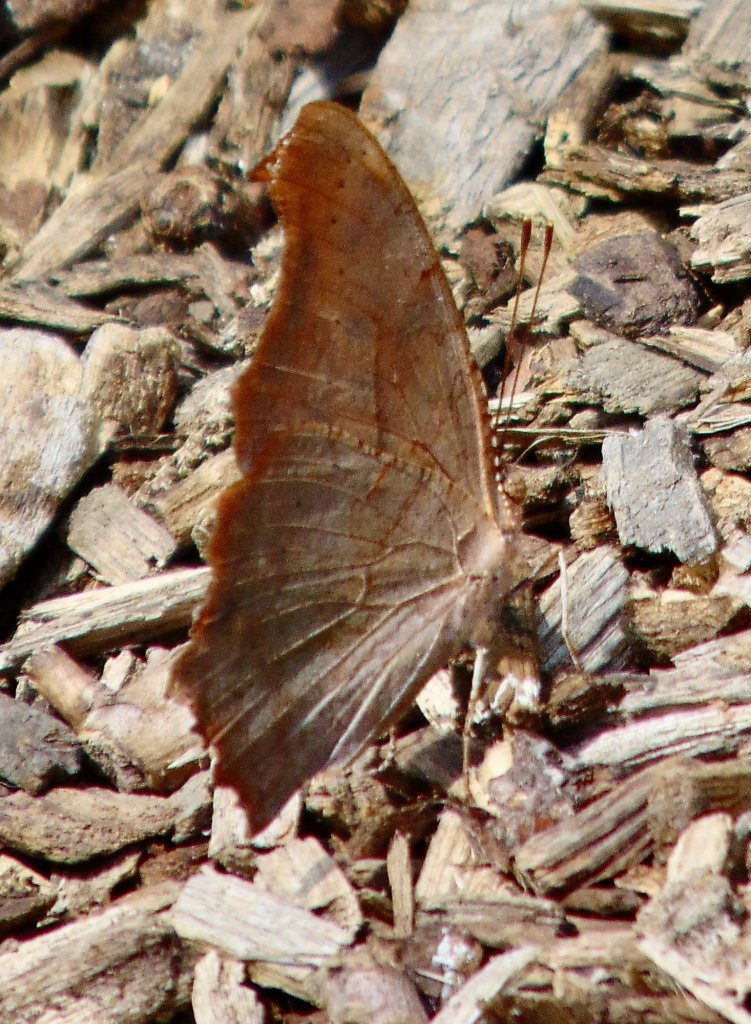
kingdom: Animalia
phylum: Arthropoda
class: Insecta
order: Lepidoptera
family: Nymphalidae
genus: Polygonia
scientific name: Polygonia interrogationis
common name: Question Mark
